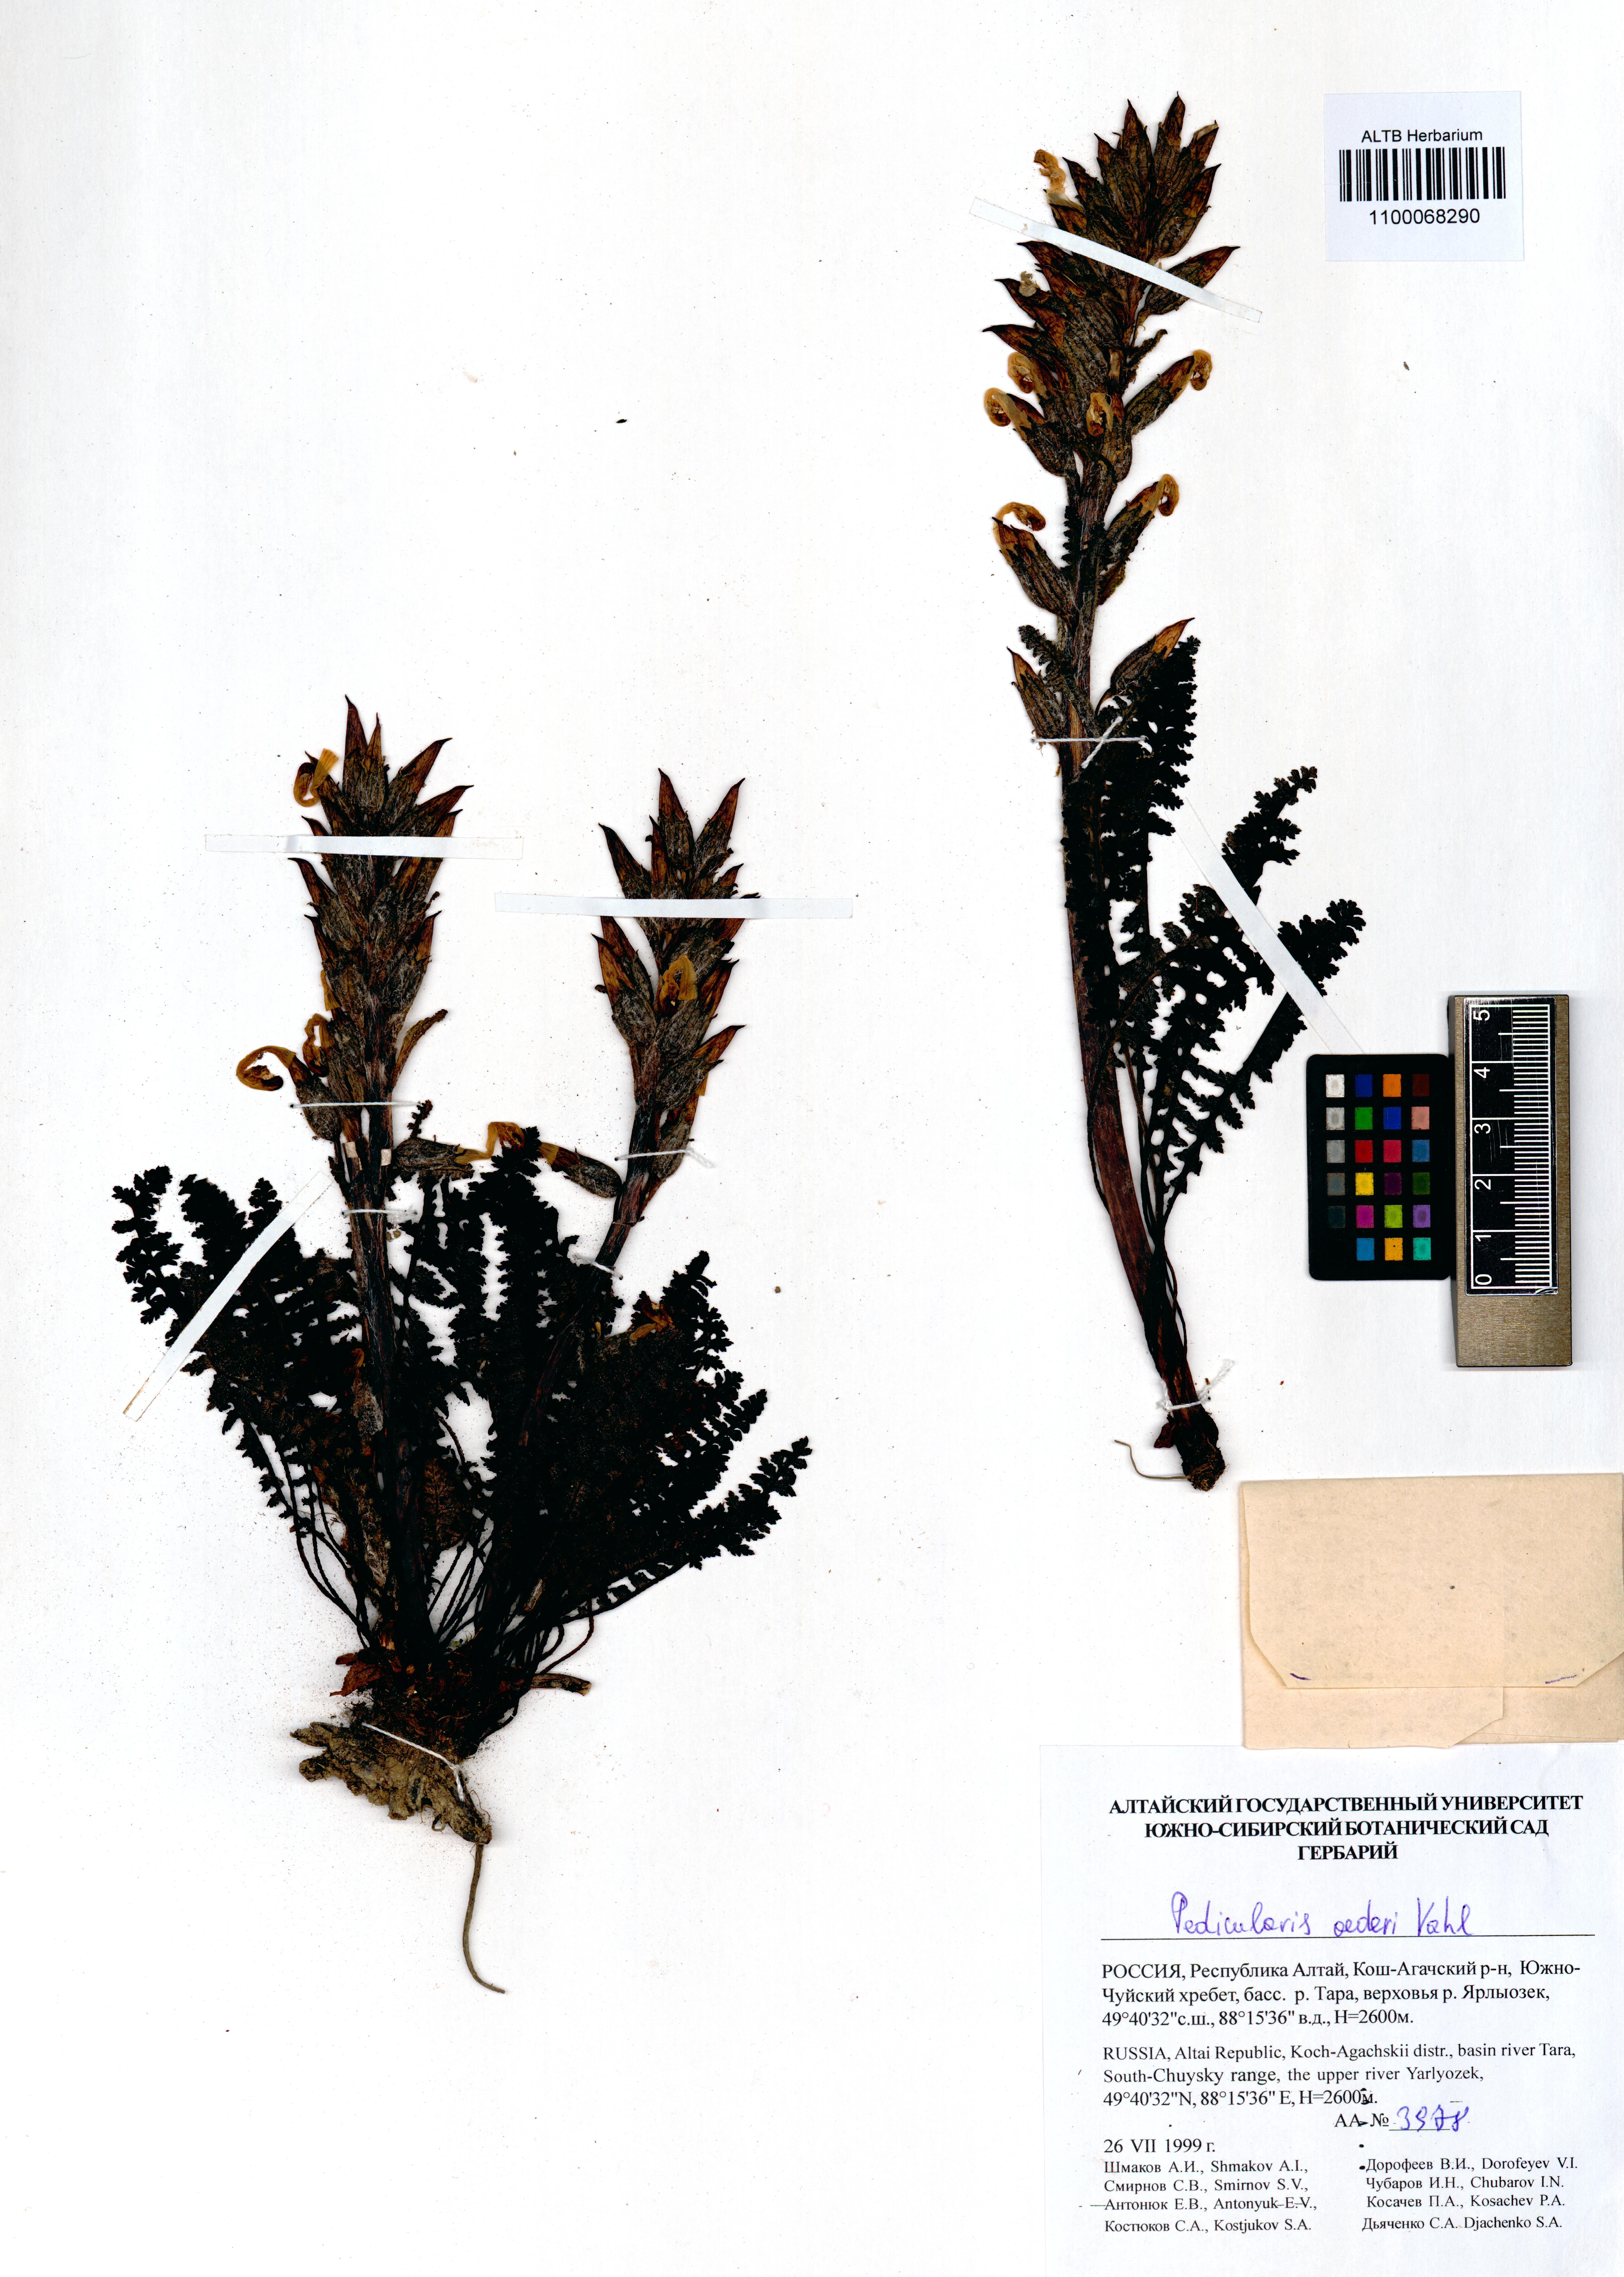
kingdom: Plantae
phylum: Tracheophyta
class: Magnoliopsida
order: Lamiales
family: Orobanchaceae
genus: Pedicularis
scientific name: Pedicularis oederi
